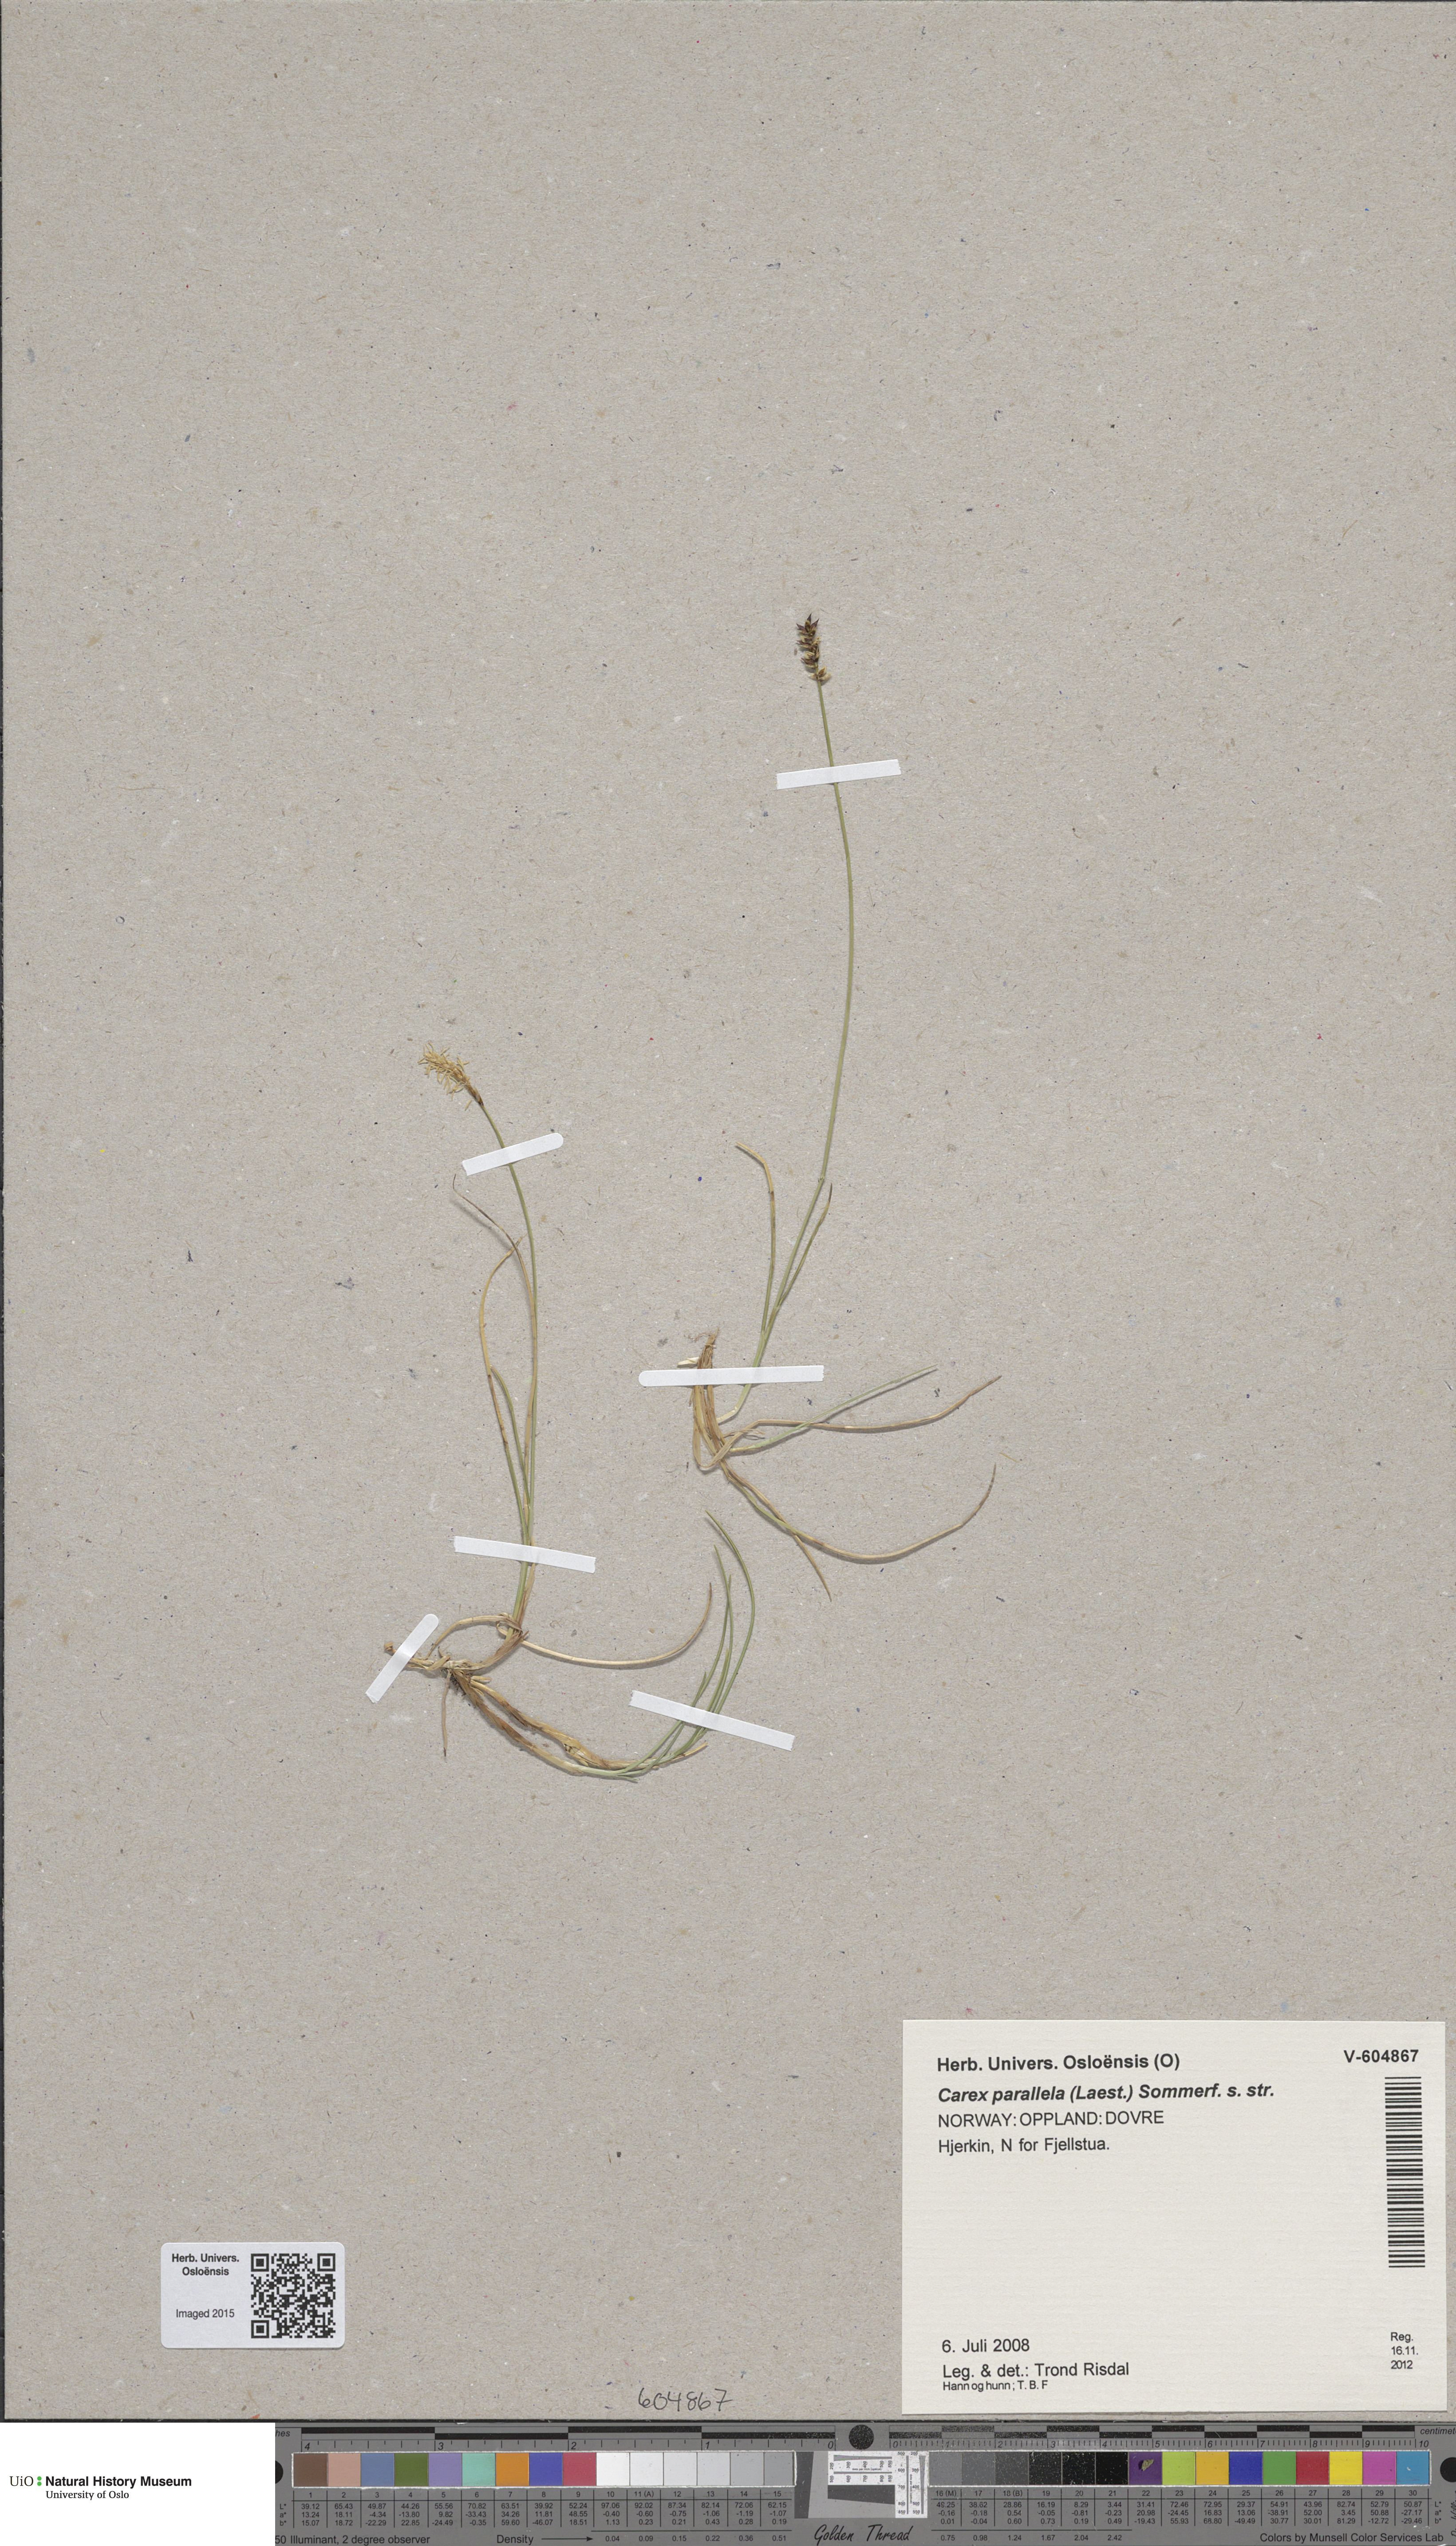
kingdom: Plantae
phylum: Tracheophyta
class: Liliopsida
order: Poales
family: Cyperaceae
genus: Carex
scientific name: Carex parallela
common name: Parallel sedge
